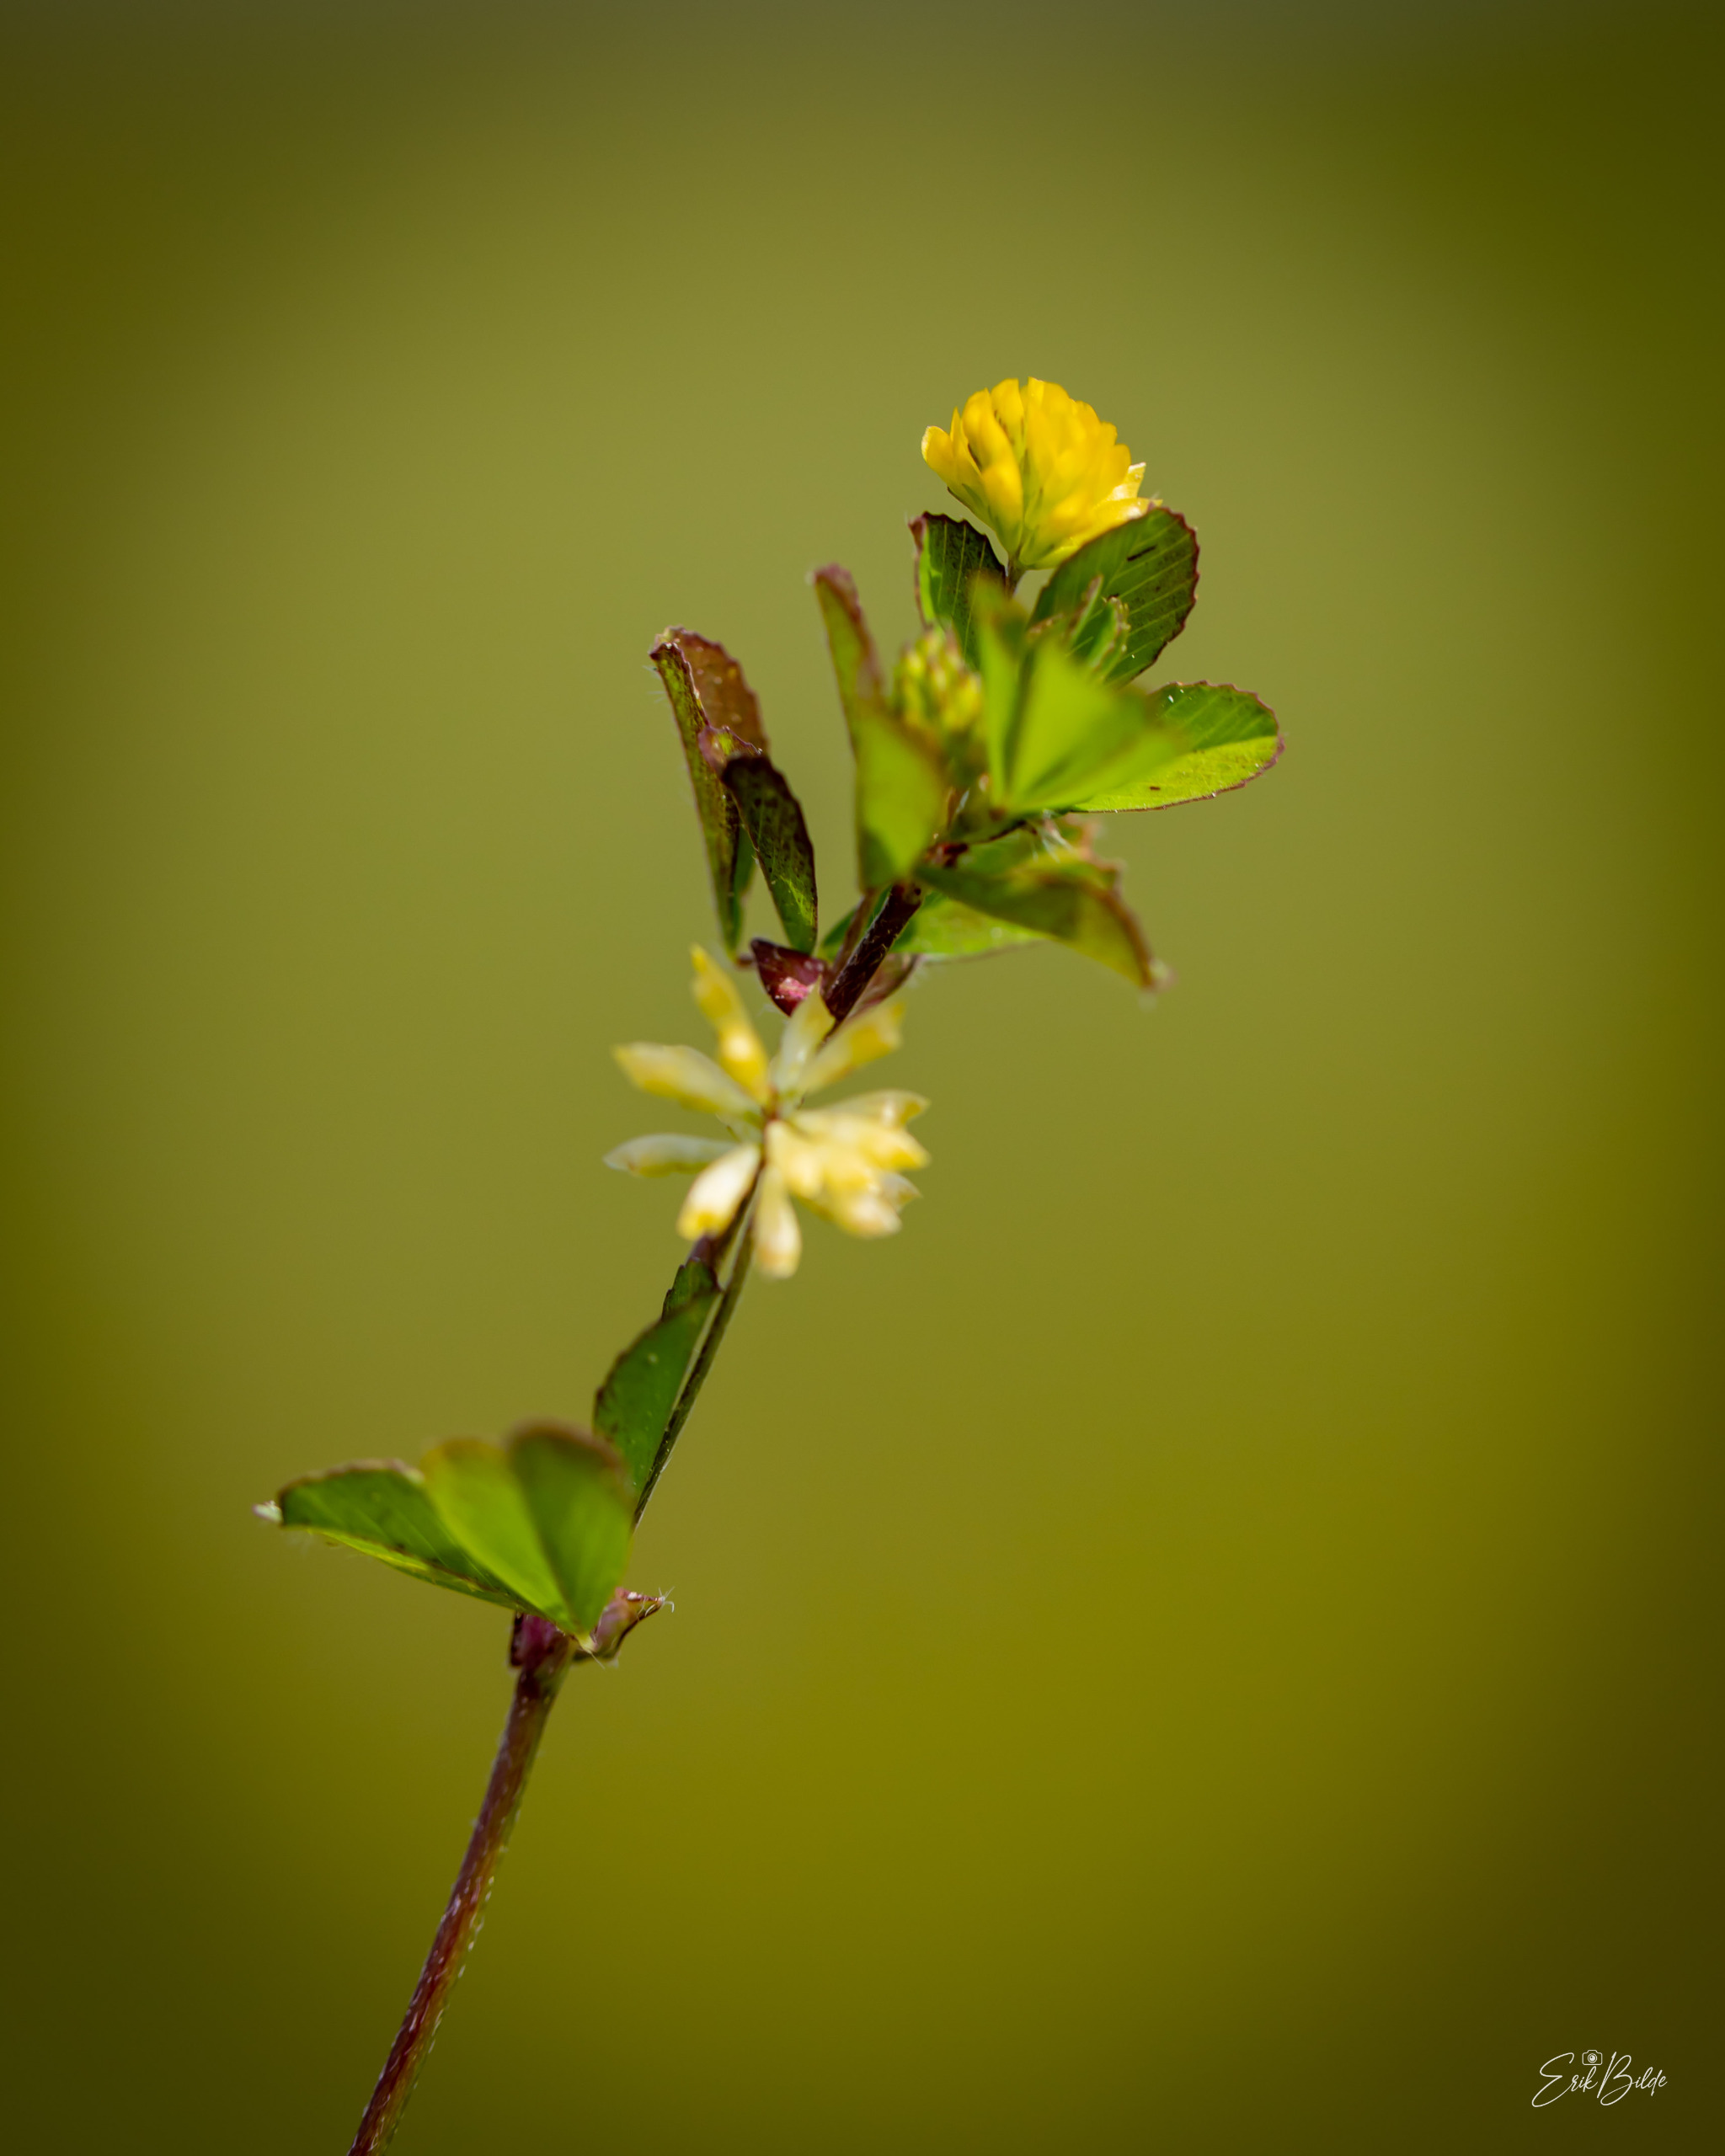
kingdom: Plantae
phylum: Tracheophyta
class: Magnoliopsida
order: Fabales
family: Fabaceae
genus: Trifolium
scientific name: Trifolium dubium
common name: Fin kløver
